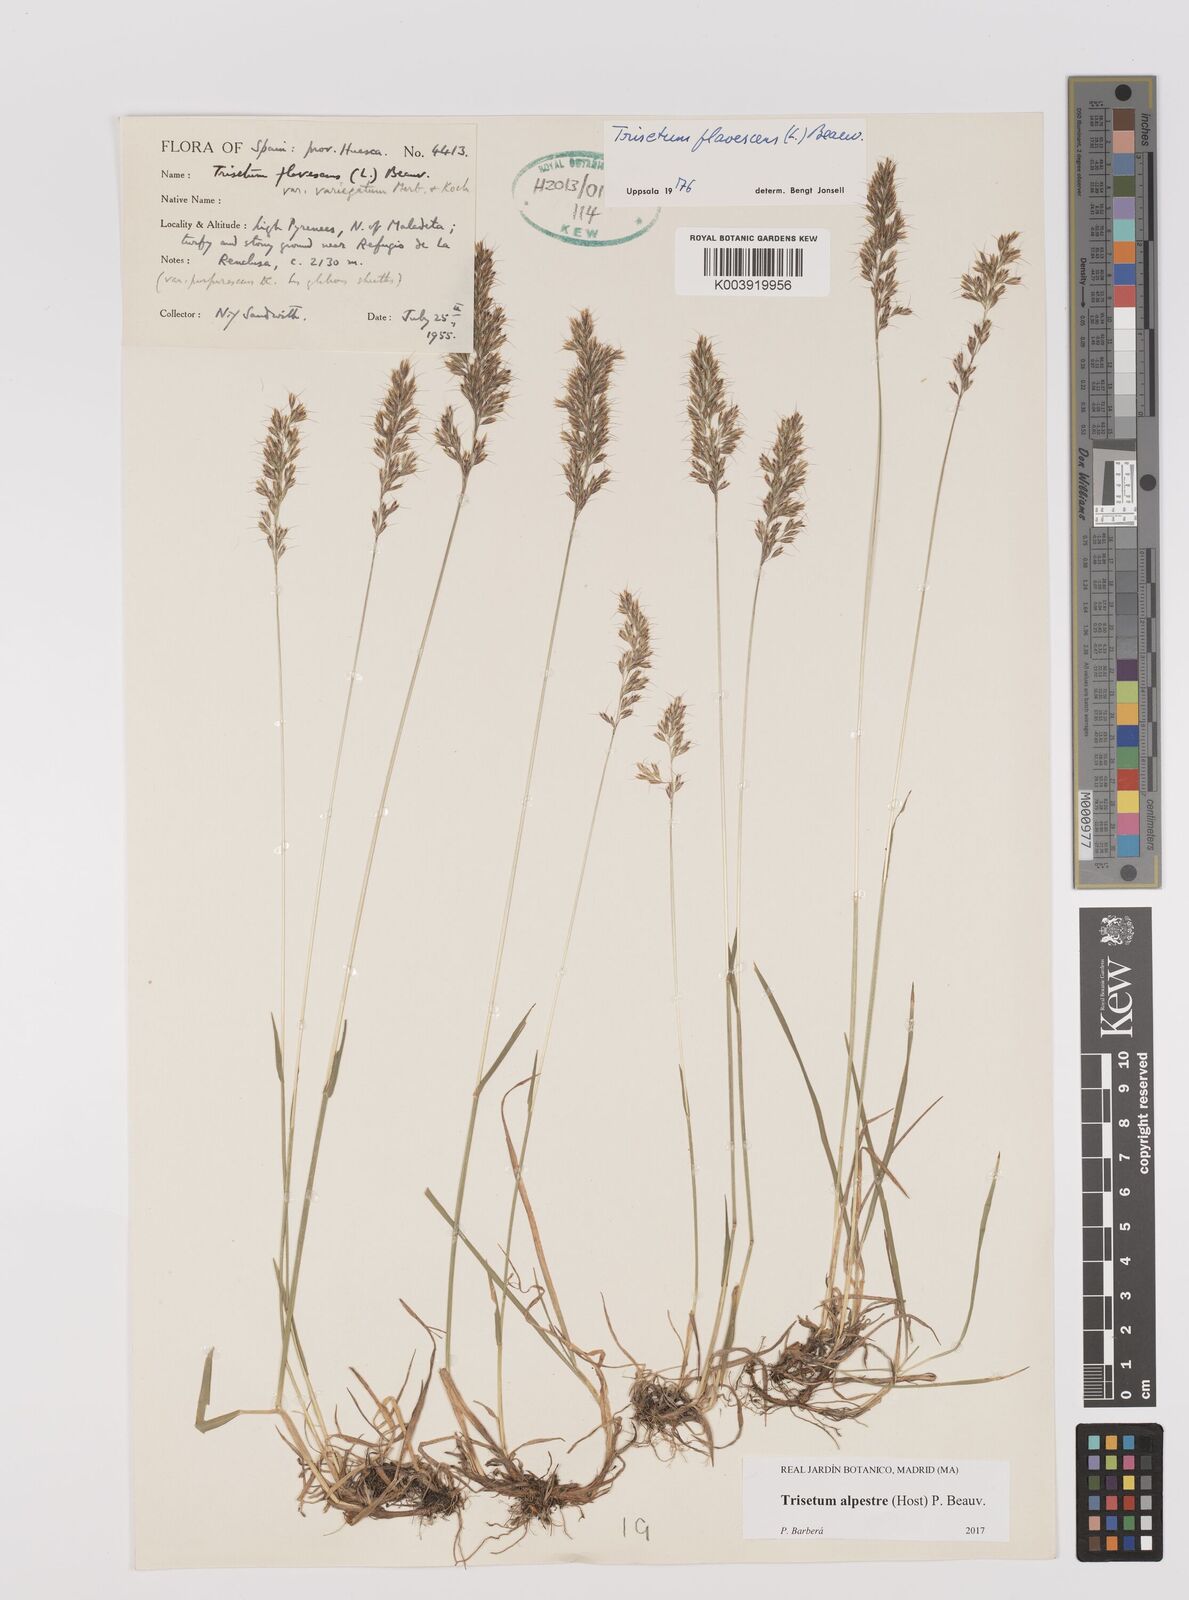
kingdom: Plantae
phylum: Tracheophyta
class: Liliopsida
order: Poales
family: Poaceae
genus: Trisetum
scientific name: Trisetum alpestre
